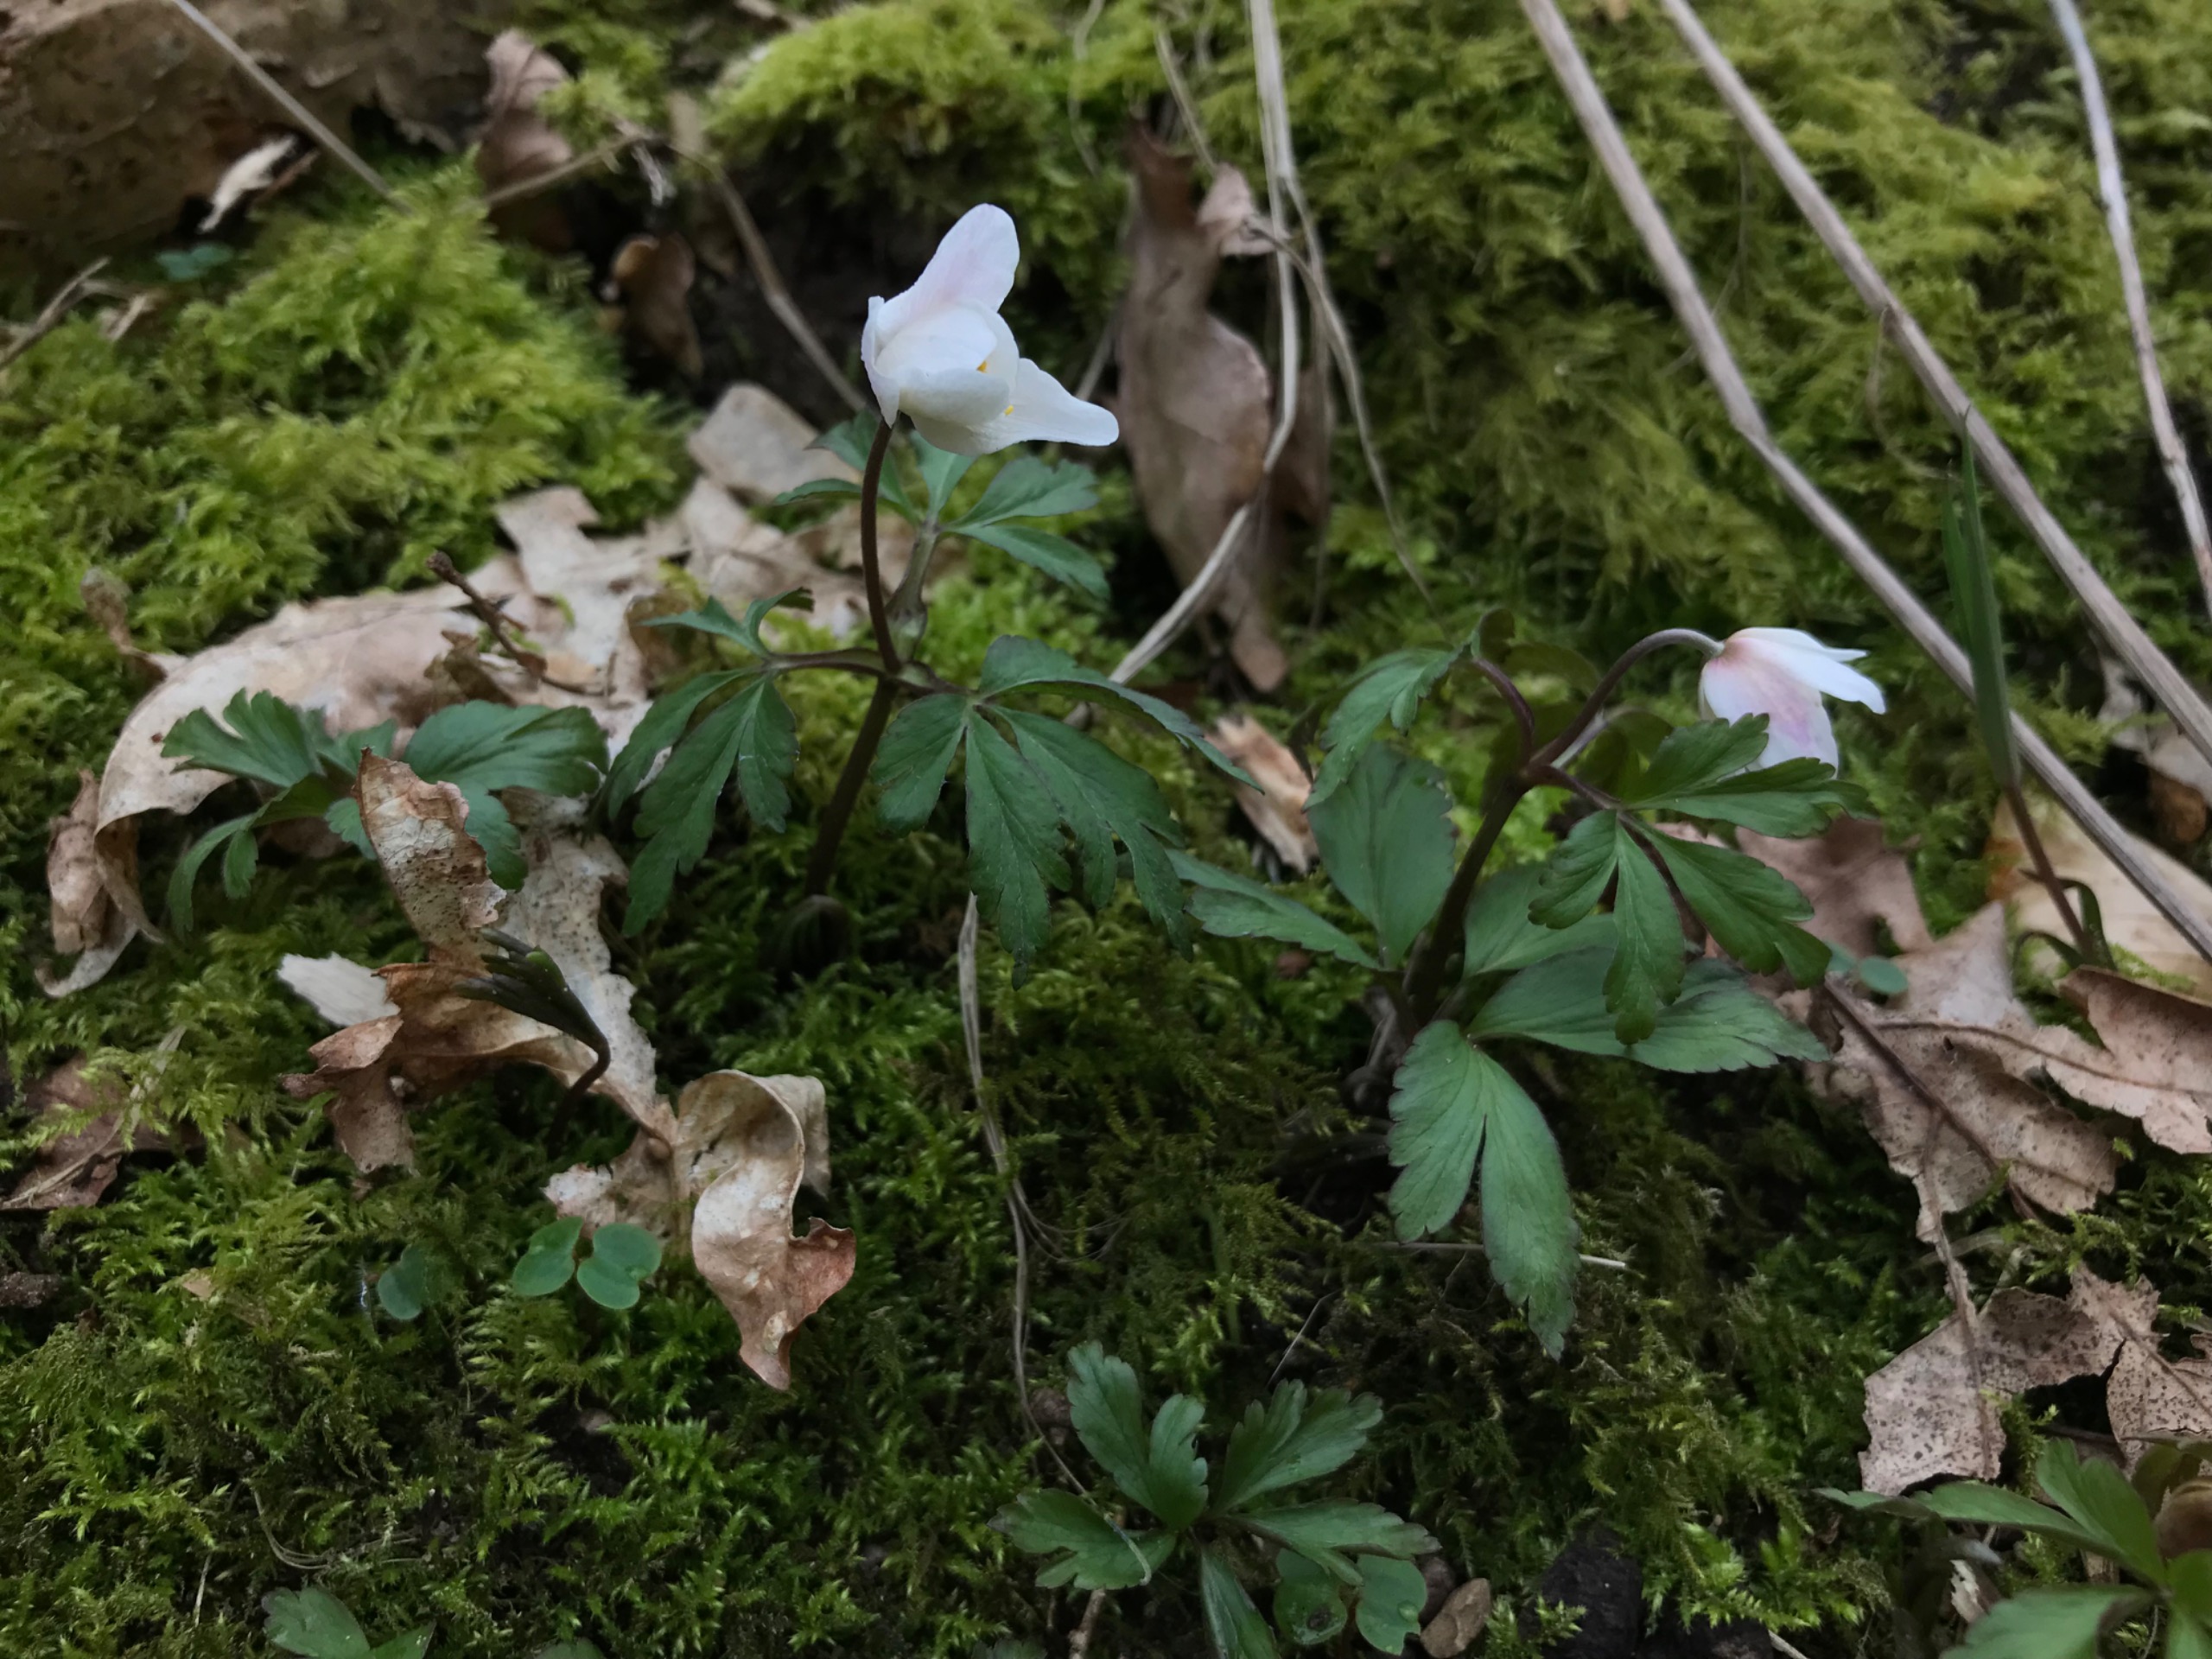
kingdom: Plantae
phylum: Tracheophyta
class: Magnoliopsida
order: Ranunculales
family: Ranunculaceae
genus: Anemone
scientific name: Anemone nemorosa
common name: Hvid anemone
